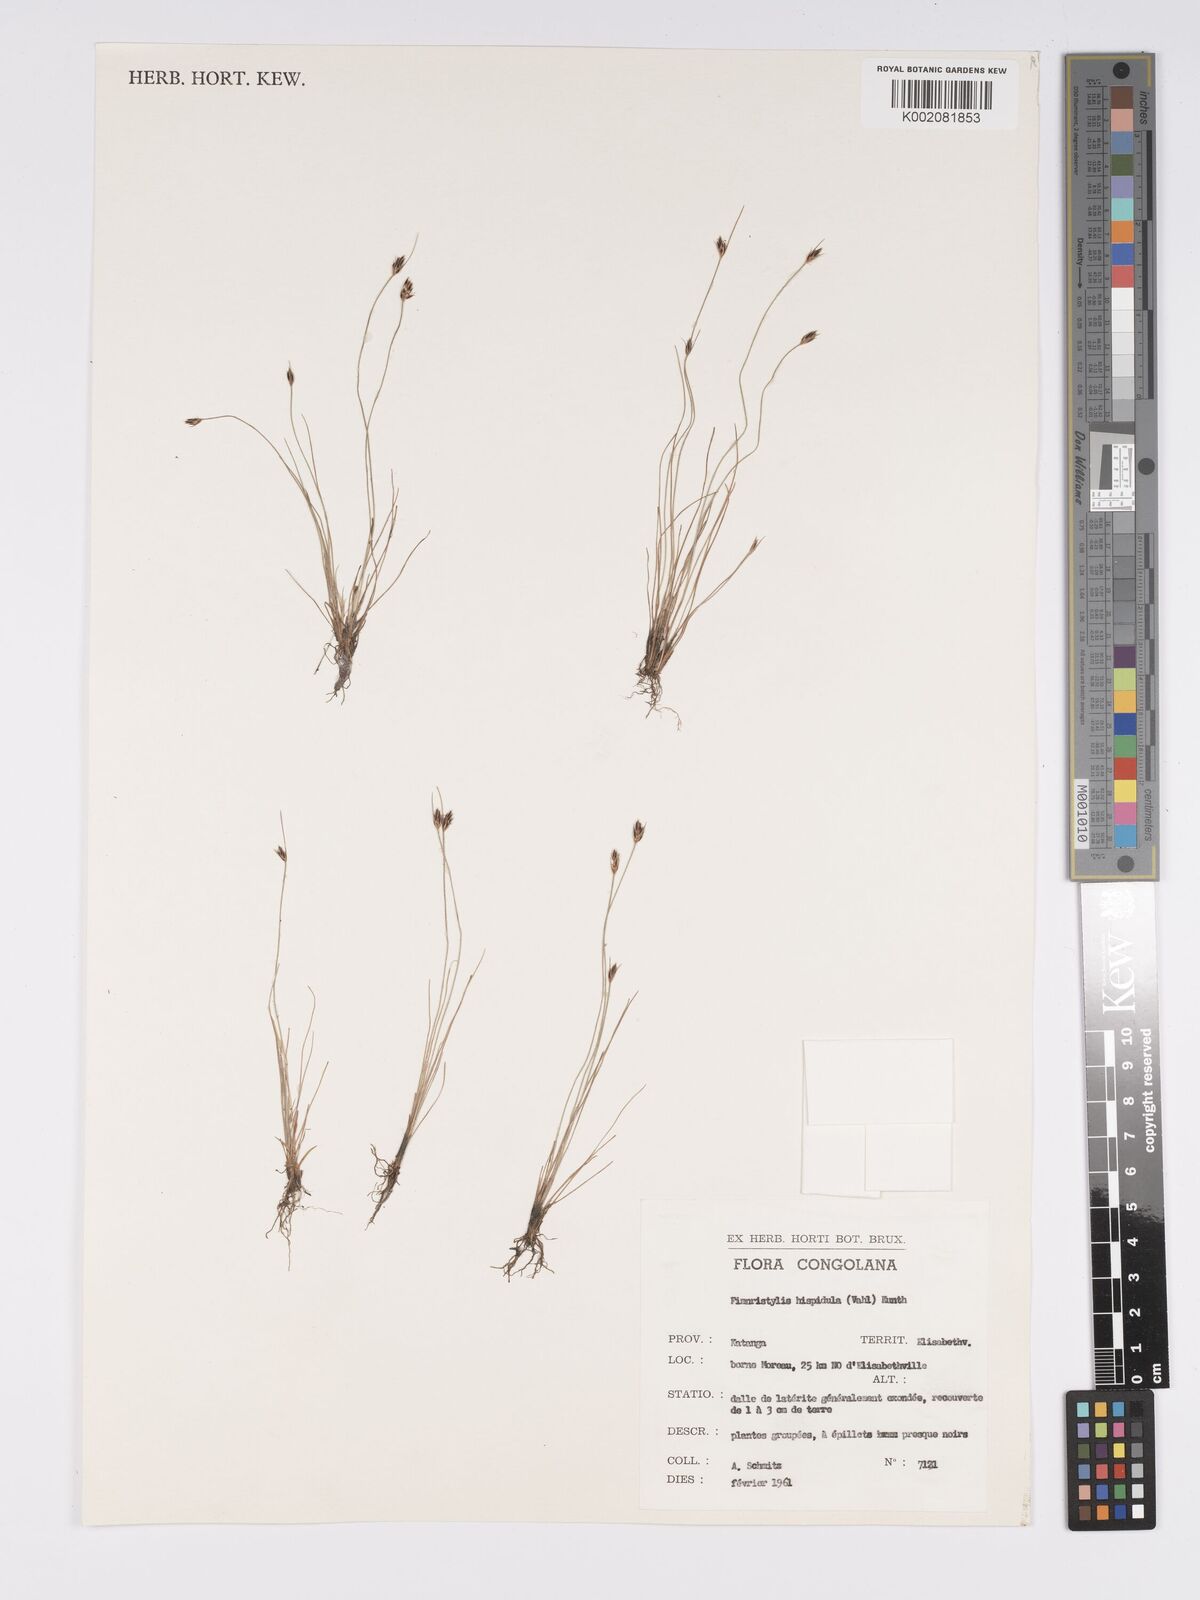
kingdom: Plantae
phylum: Tracheophyta
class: Liliopsida
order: Poales
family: Cyperaceae
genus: Bulbostylis
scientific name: Bulbostylis hispidula
